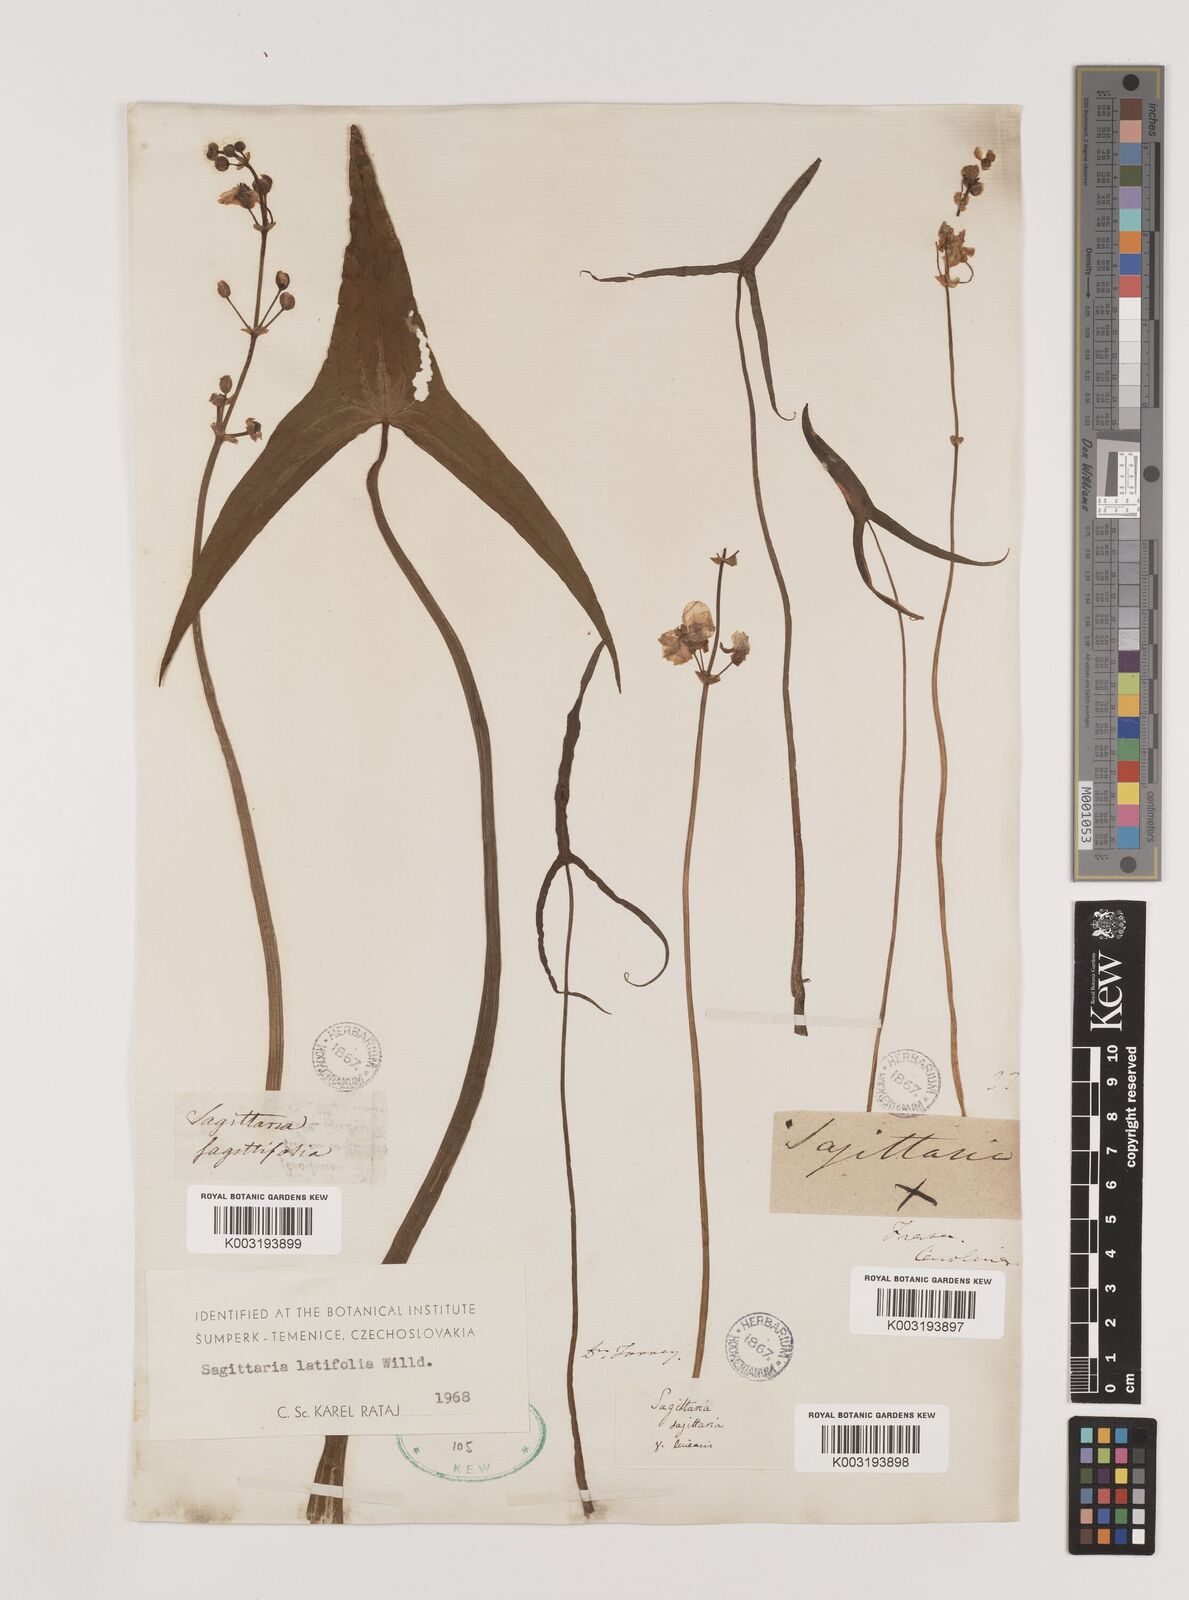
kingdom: Plantae
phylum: Tracheophyta
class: Liliopsida
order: Alismatales
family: Alismataceae
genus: Sagittaria
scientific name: Sagittaria latifolia
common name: Duck-potato
